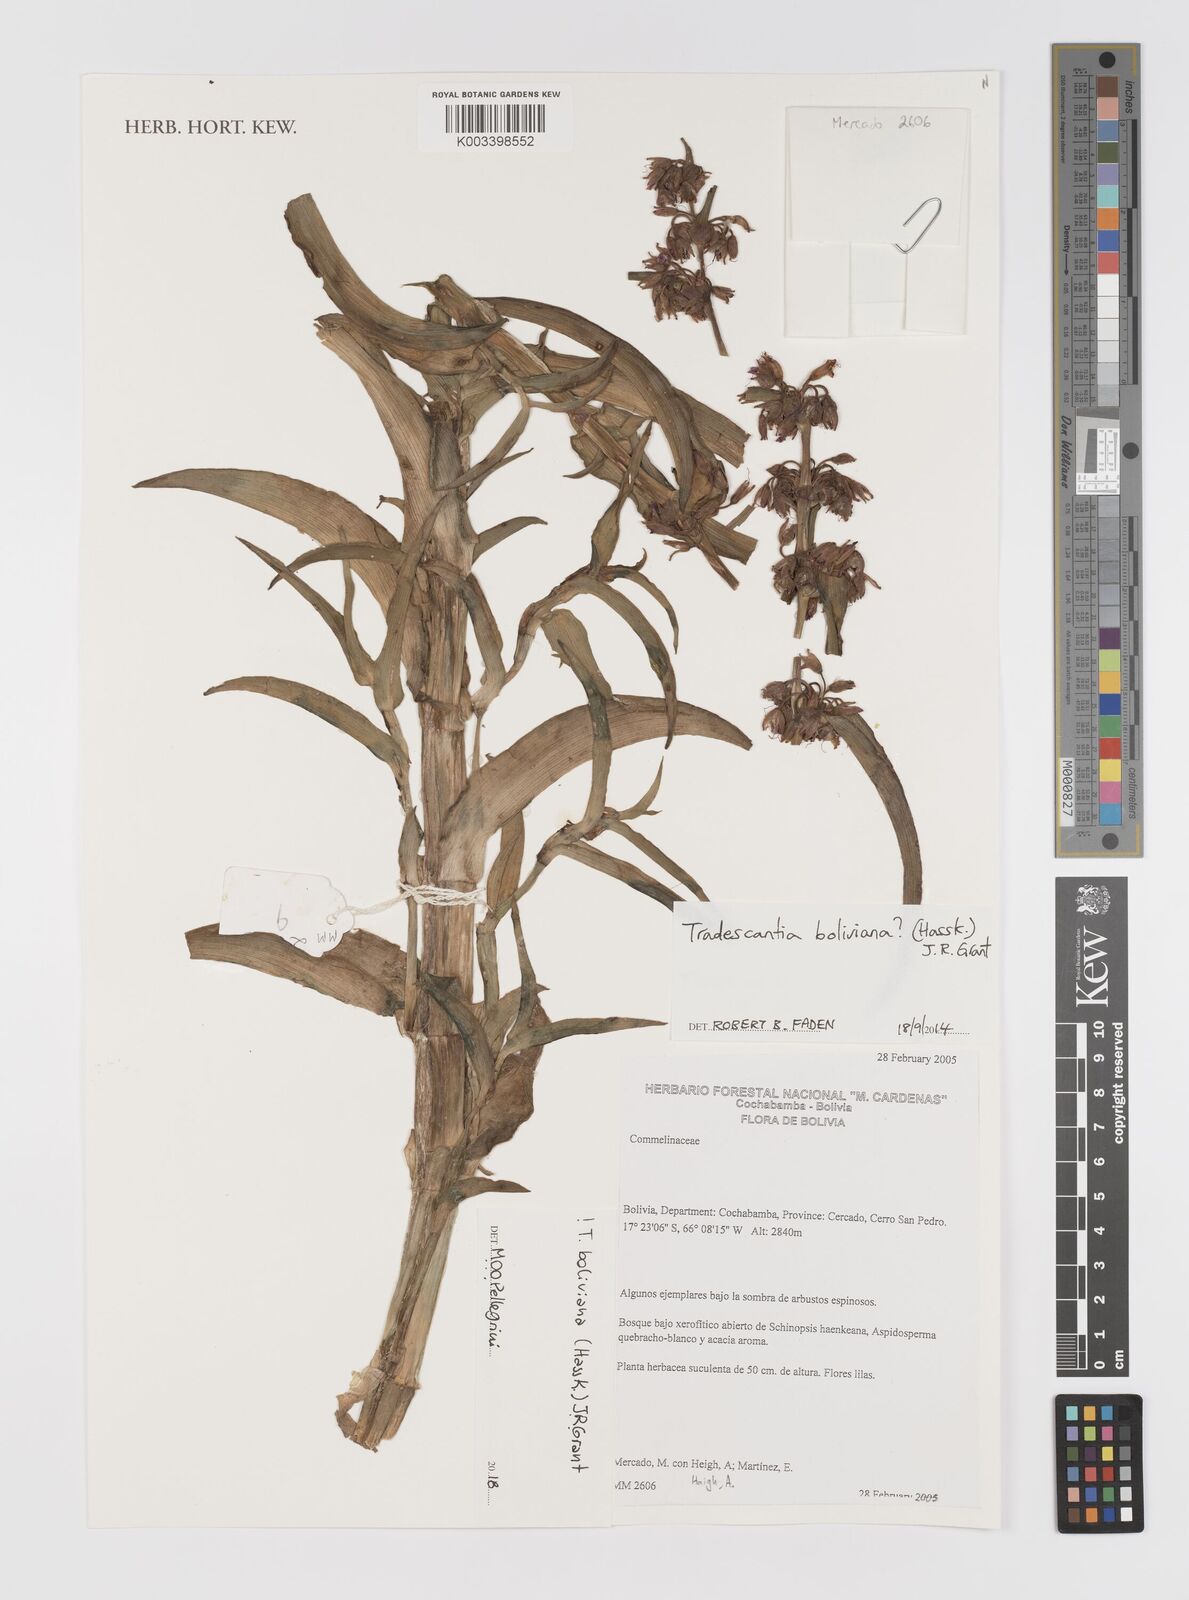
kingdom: Plantae
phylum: Tracheophyta
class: Liliopsida
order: Commelinales
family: Commelinaceae
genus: Tradescantia
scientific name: Tradescantia boliviana
